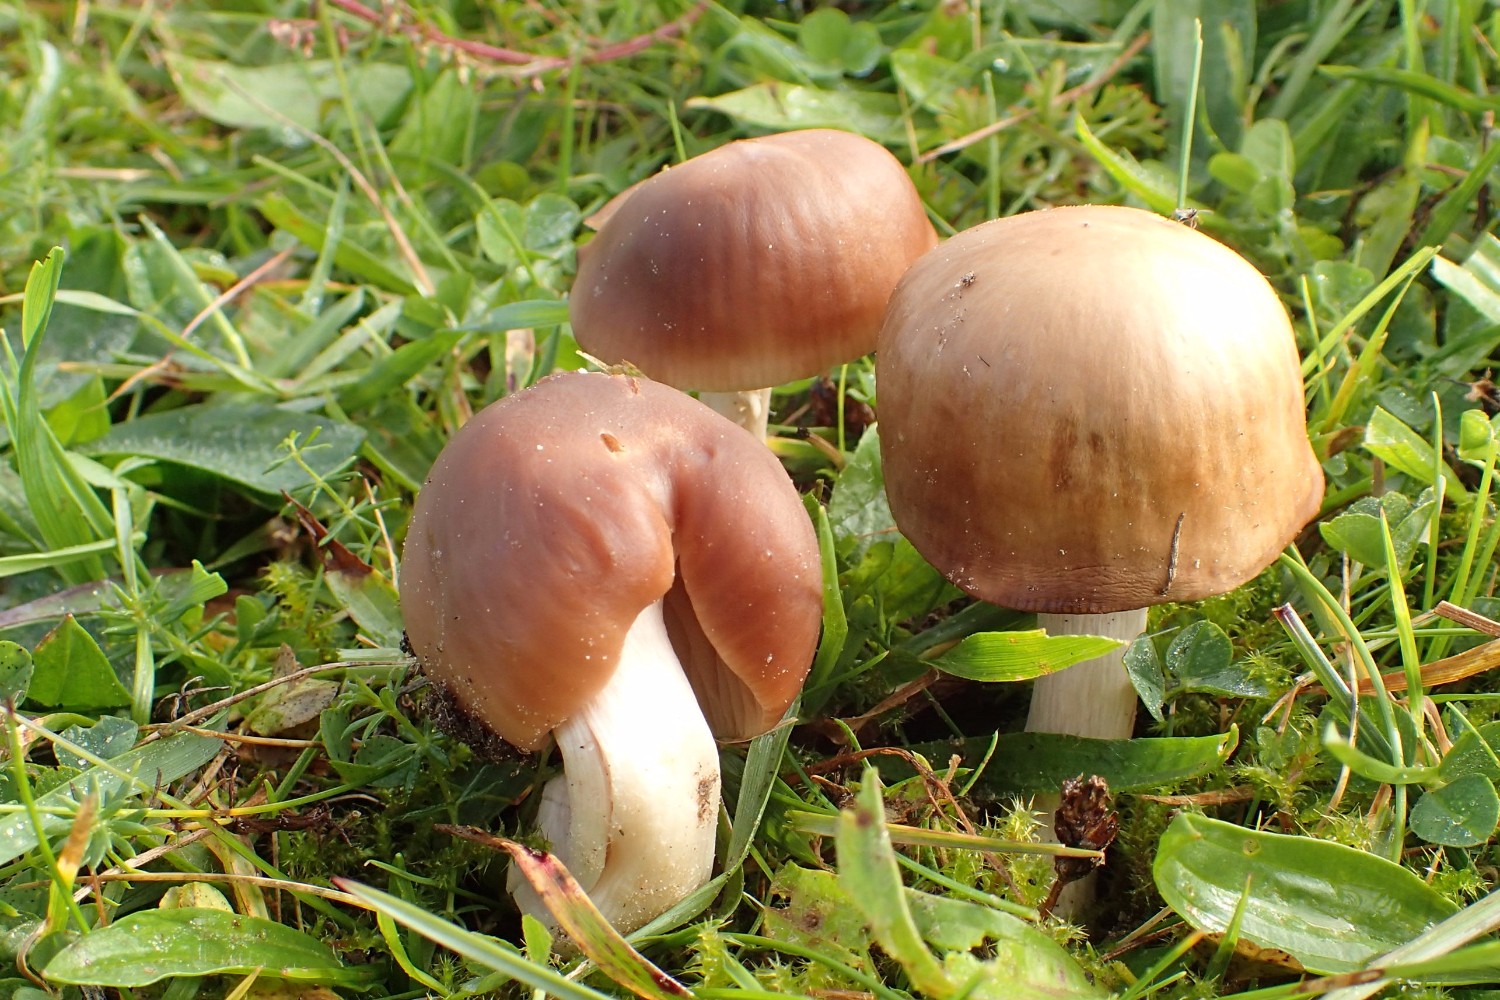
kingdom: Fungi
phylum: Basidiomycota
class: Agaricomycetes
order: Agaricales
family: Hygrophoraceae
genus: Cuphophyllus
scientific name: Cuphophyllus colemannianus
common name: rødbrun vokshat
